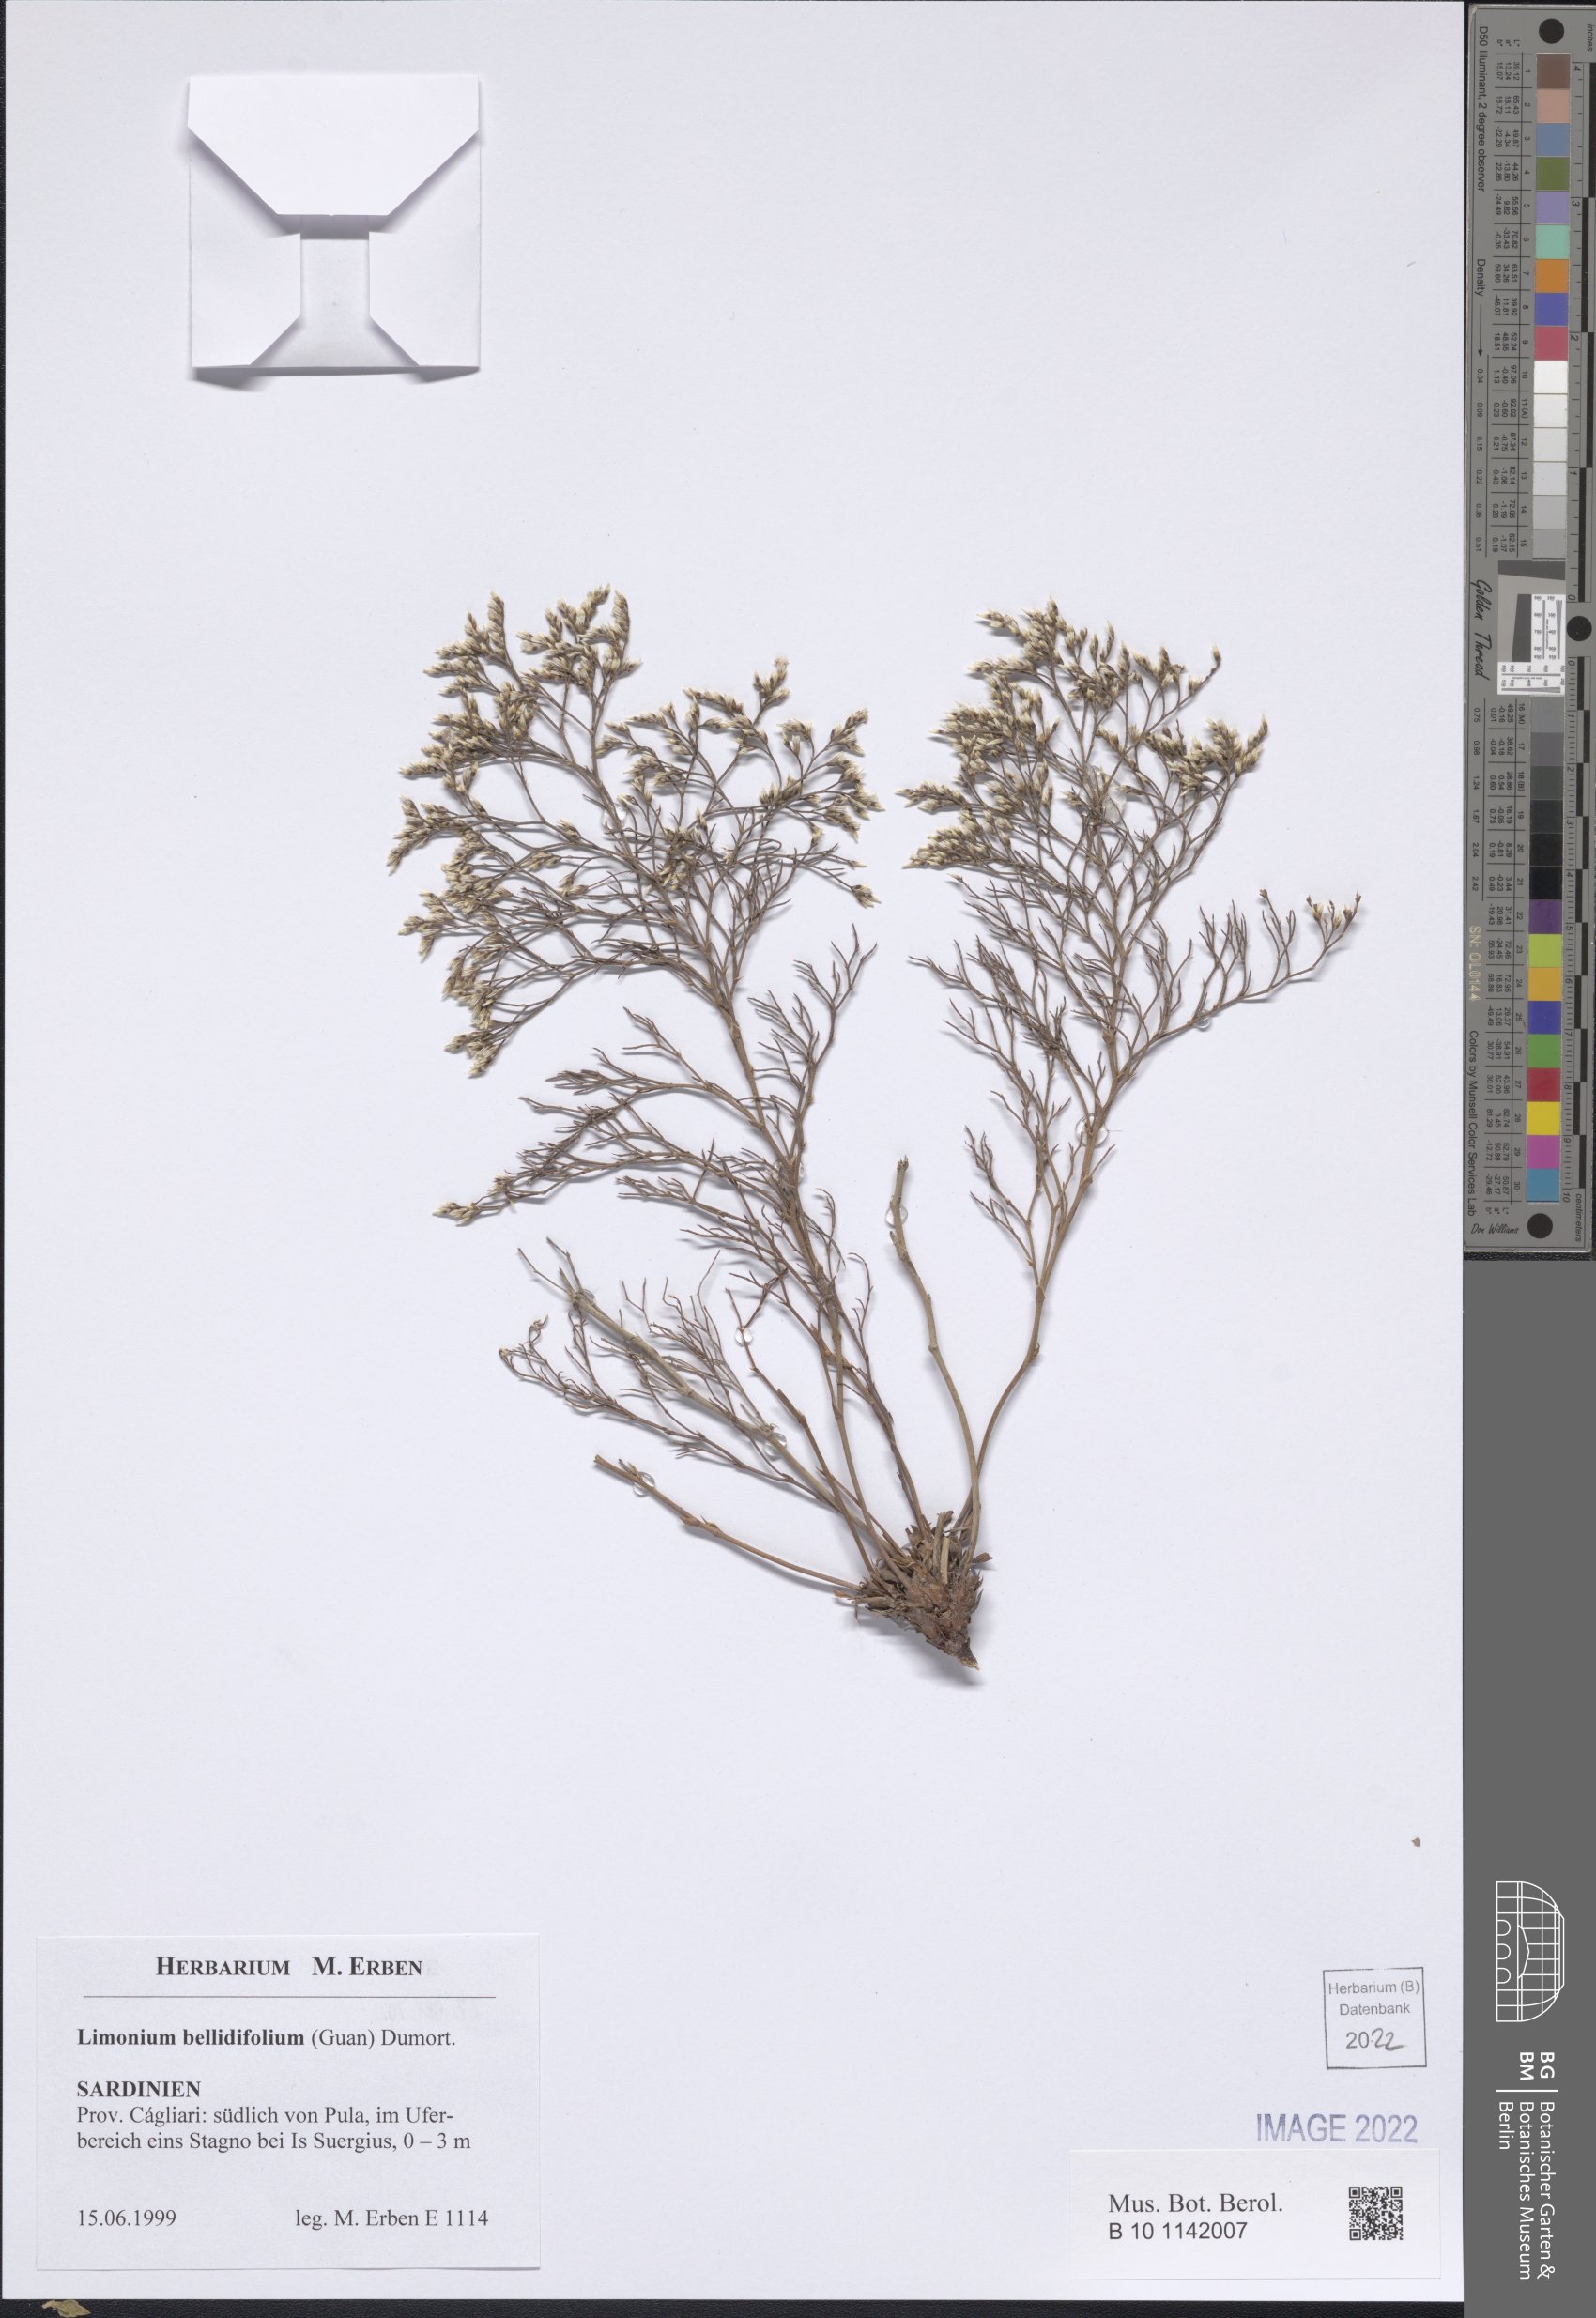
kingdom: Plantae
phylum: Tracheophyta
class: Magnoliopsida
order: Caryophyllales
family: Plumbaginaceae
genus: Limonium
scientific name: Limonium bellidifolium
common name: Matted sea-lavender
